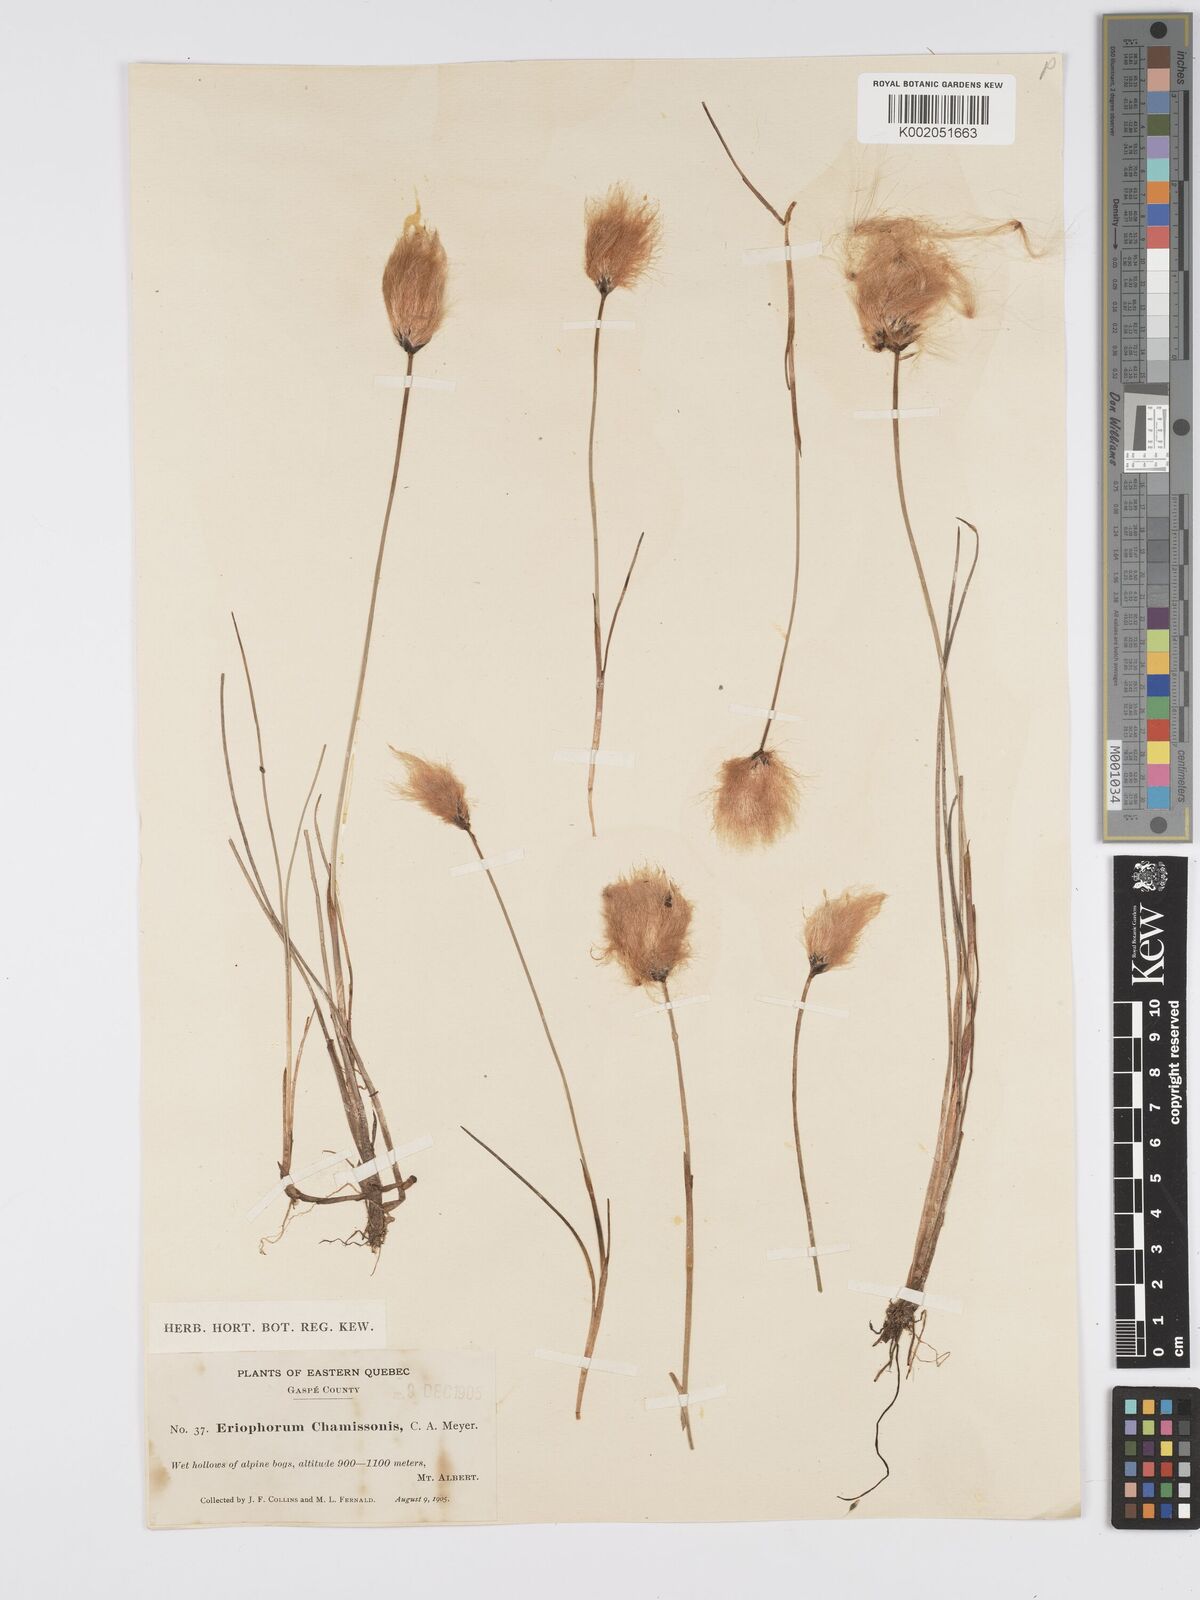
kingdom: Plantae
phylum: Tracheophyta
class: Liliopsida
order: Poales
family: Cyperaceae
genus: Eriophorum
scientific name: Eriophorum chamissonis
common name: Chamisso's cottongrass
